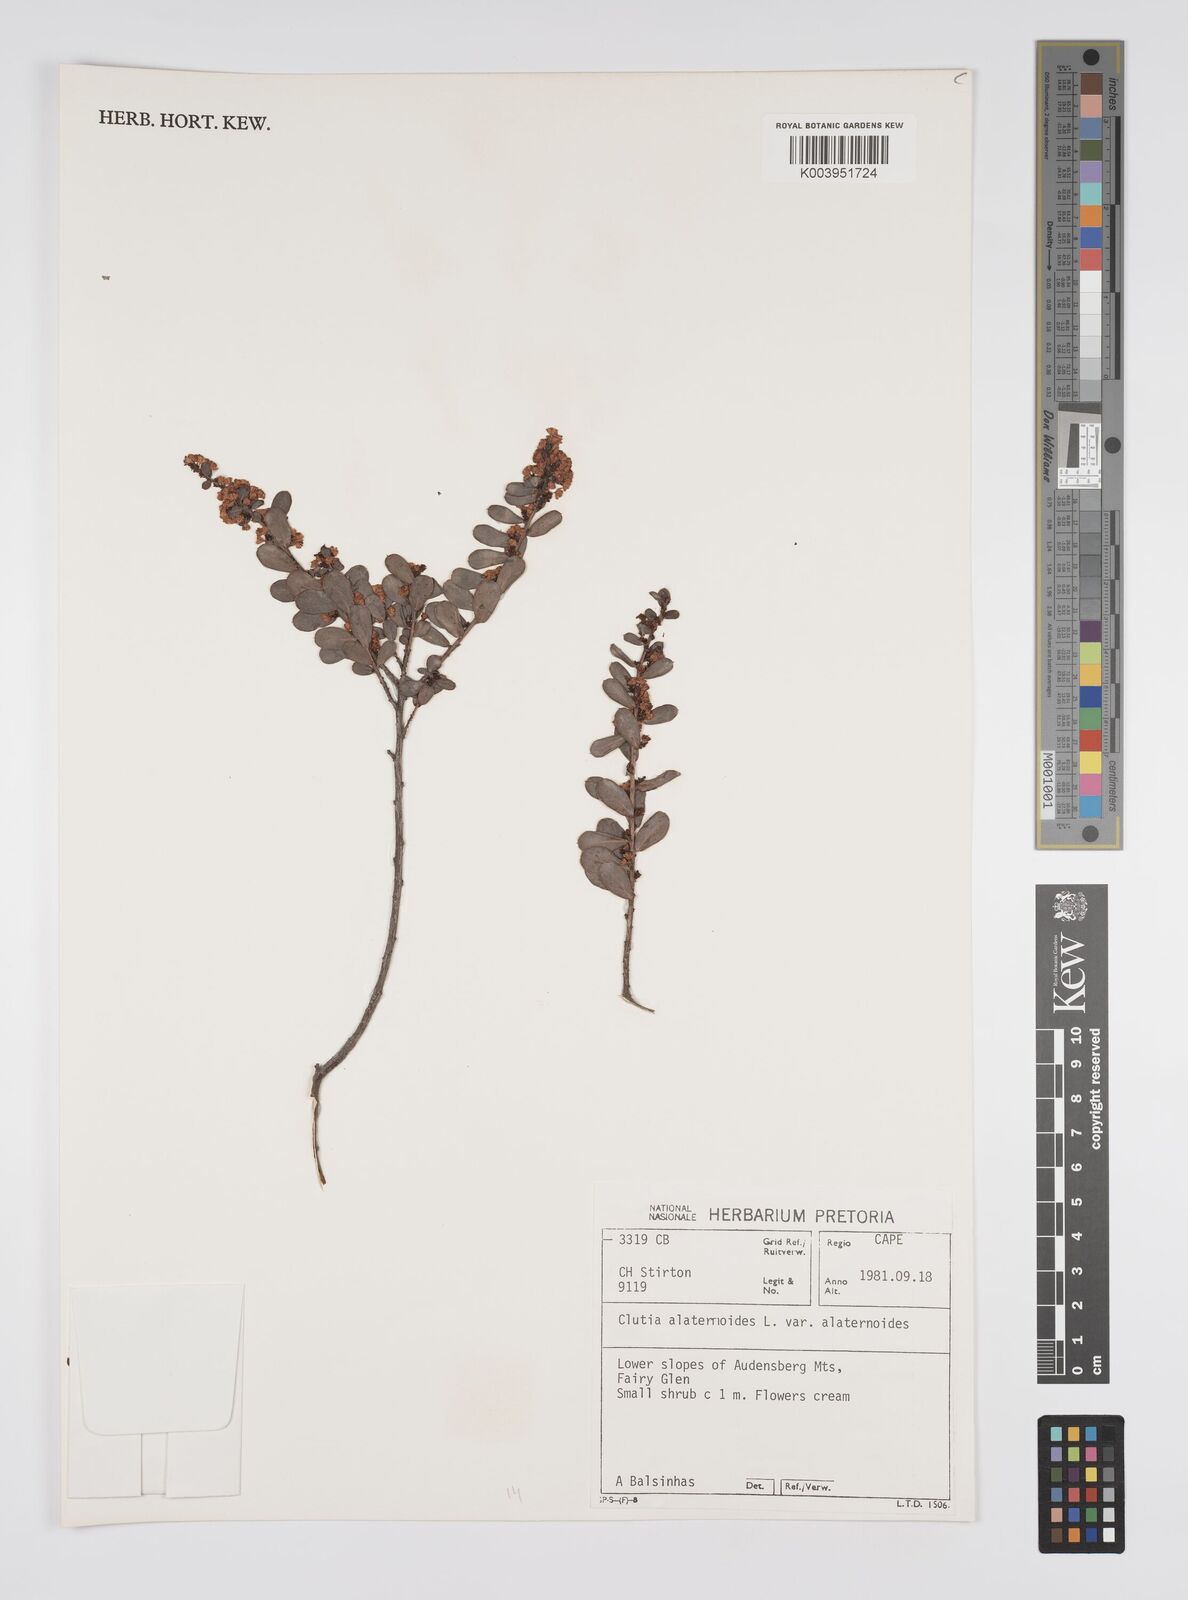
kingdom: Plantae
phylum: Tracheophyta
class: Magnoliopsida
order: Malpighiales
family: Peraceae
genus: Clutia
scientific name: Clutia alaternoides
